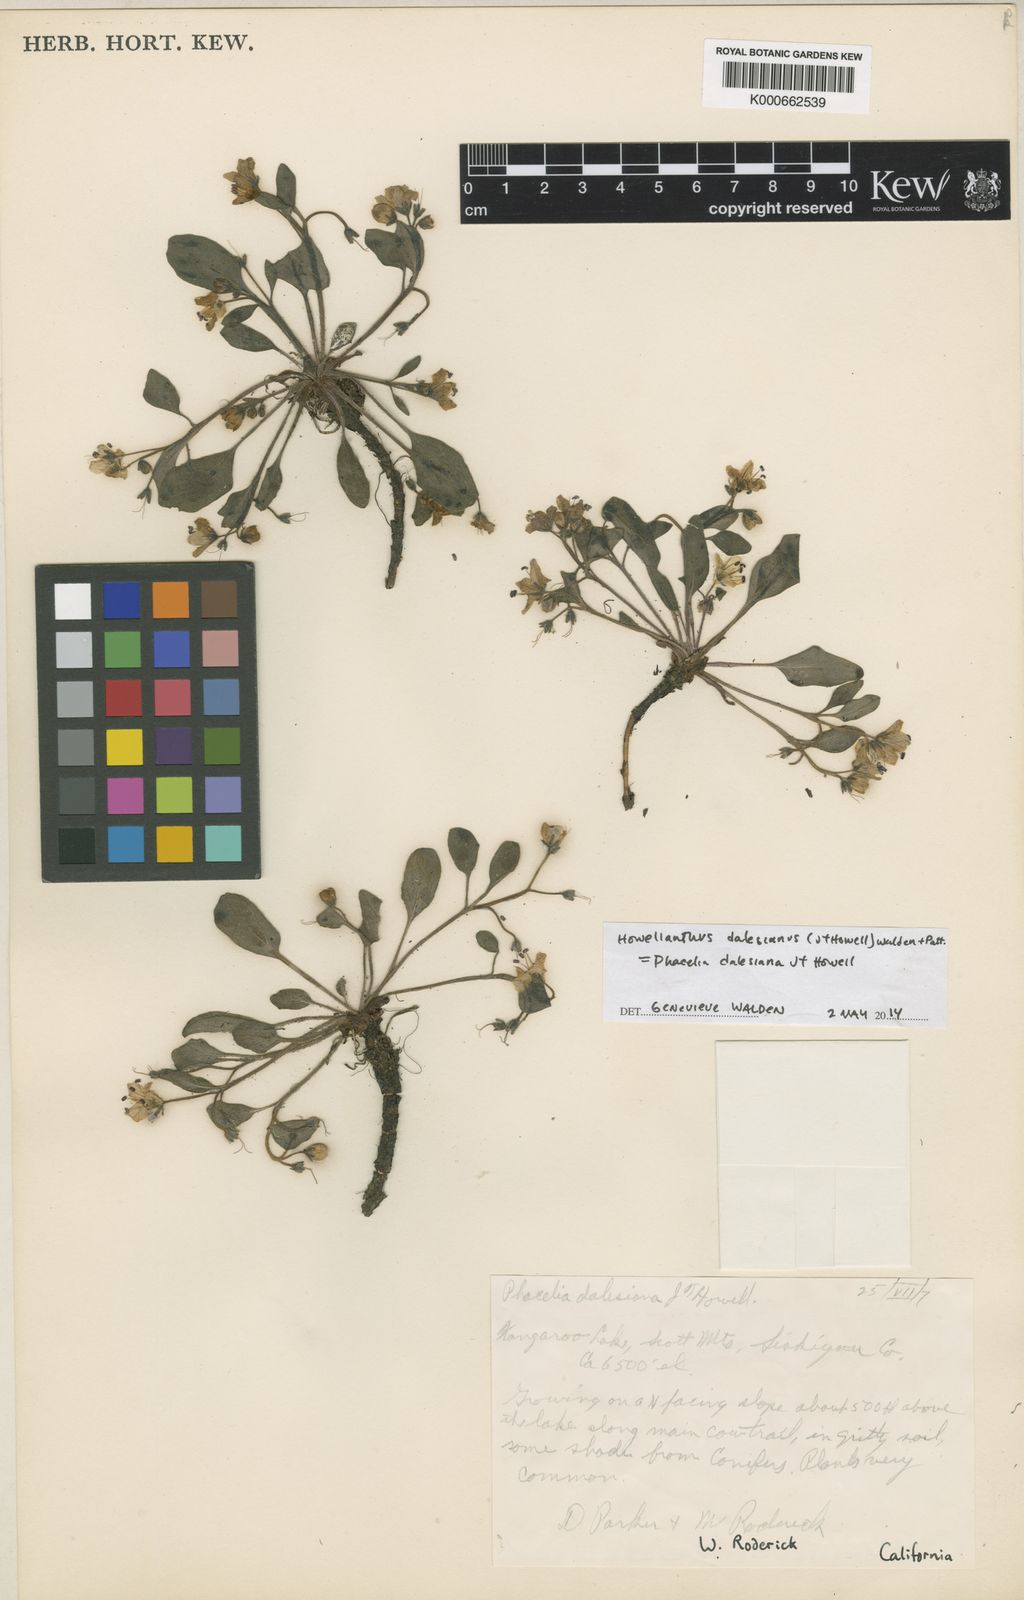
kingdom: Plantae
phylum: Tracheophyta
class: Magnoliopsida
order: Boraginales
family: Hydrophyllaceae
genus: Howellanthus
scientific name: Howellanthus dalesianus
